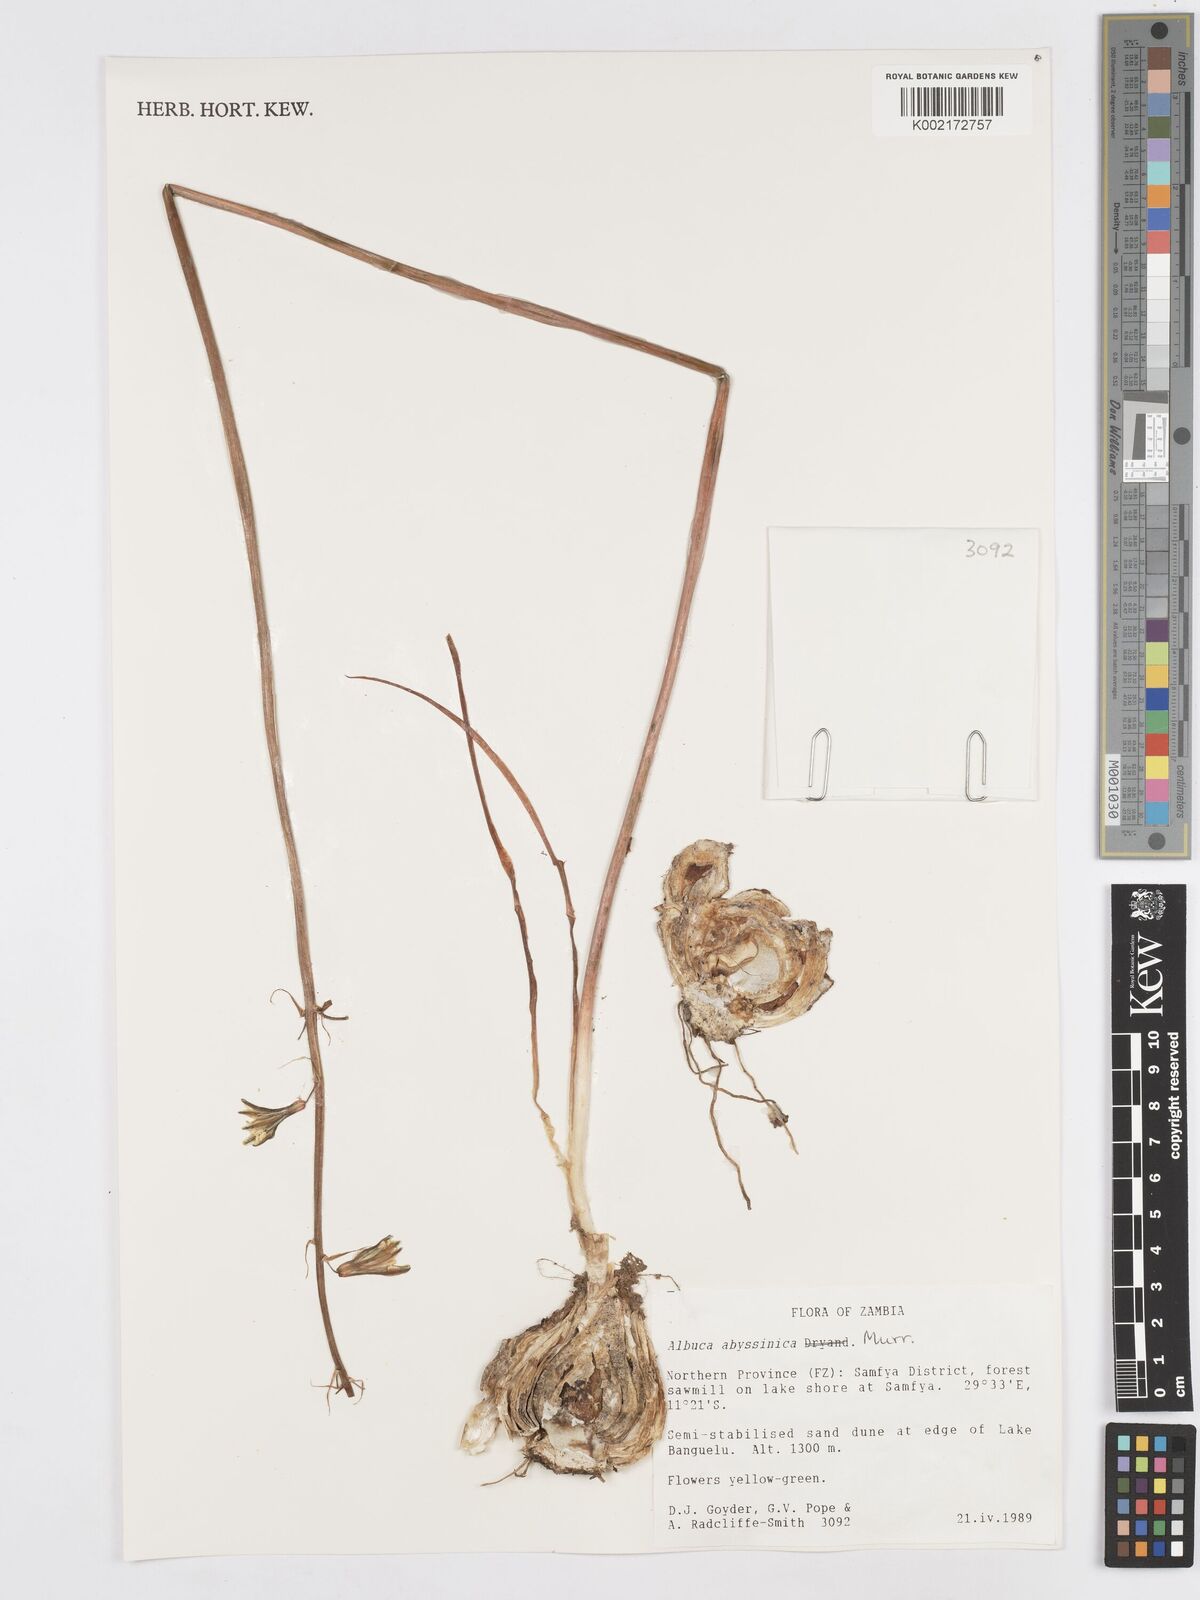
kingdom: Plantae
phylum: Tracheophyta
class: Liliopsida
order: Asparagales
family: Asparagaceae
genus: Albuca
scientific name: Albuca abyssinica
